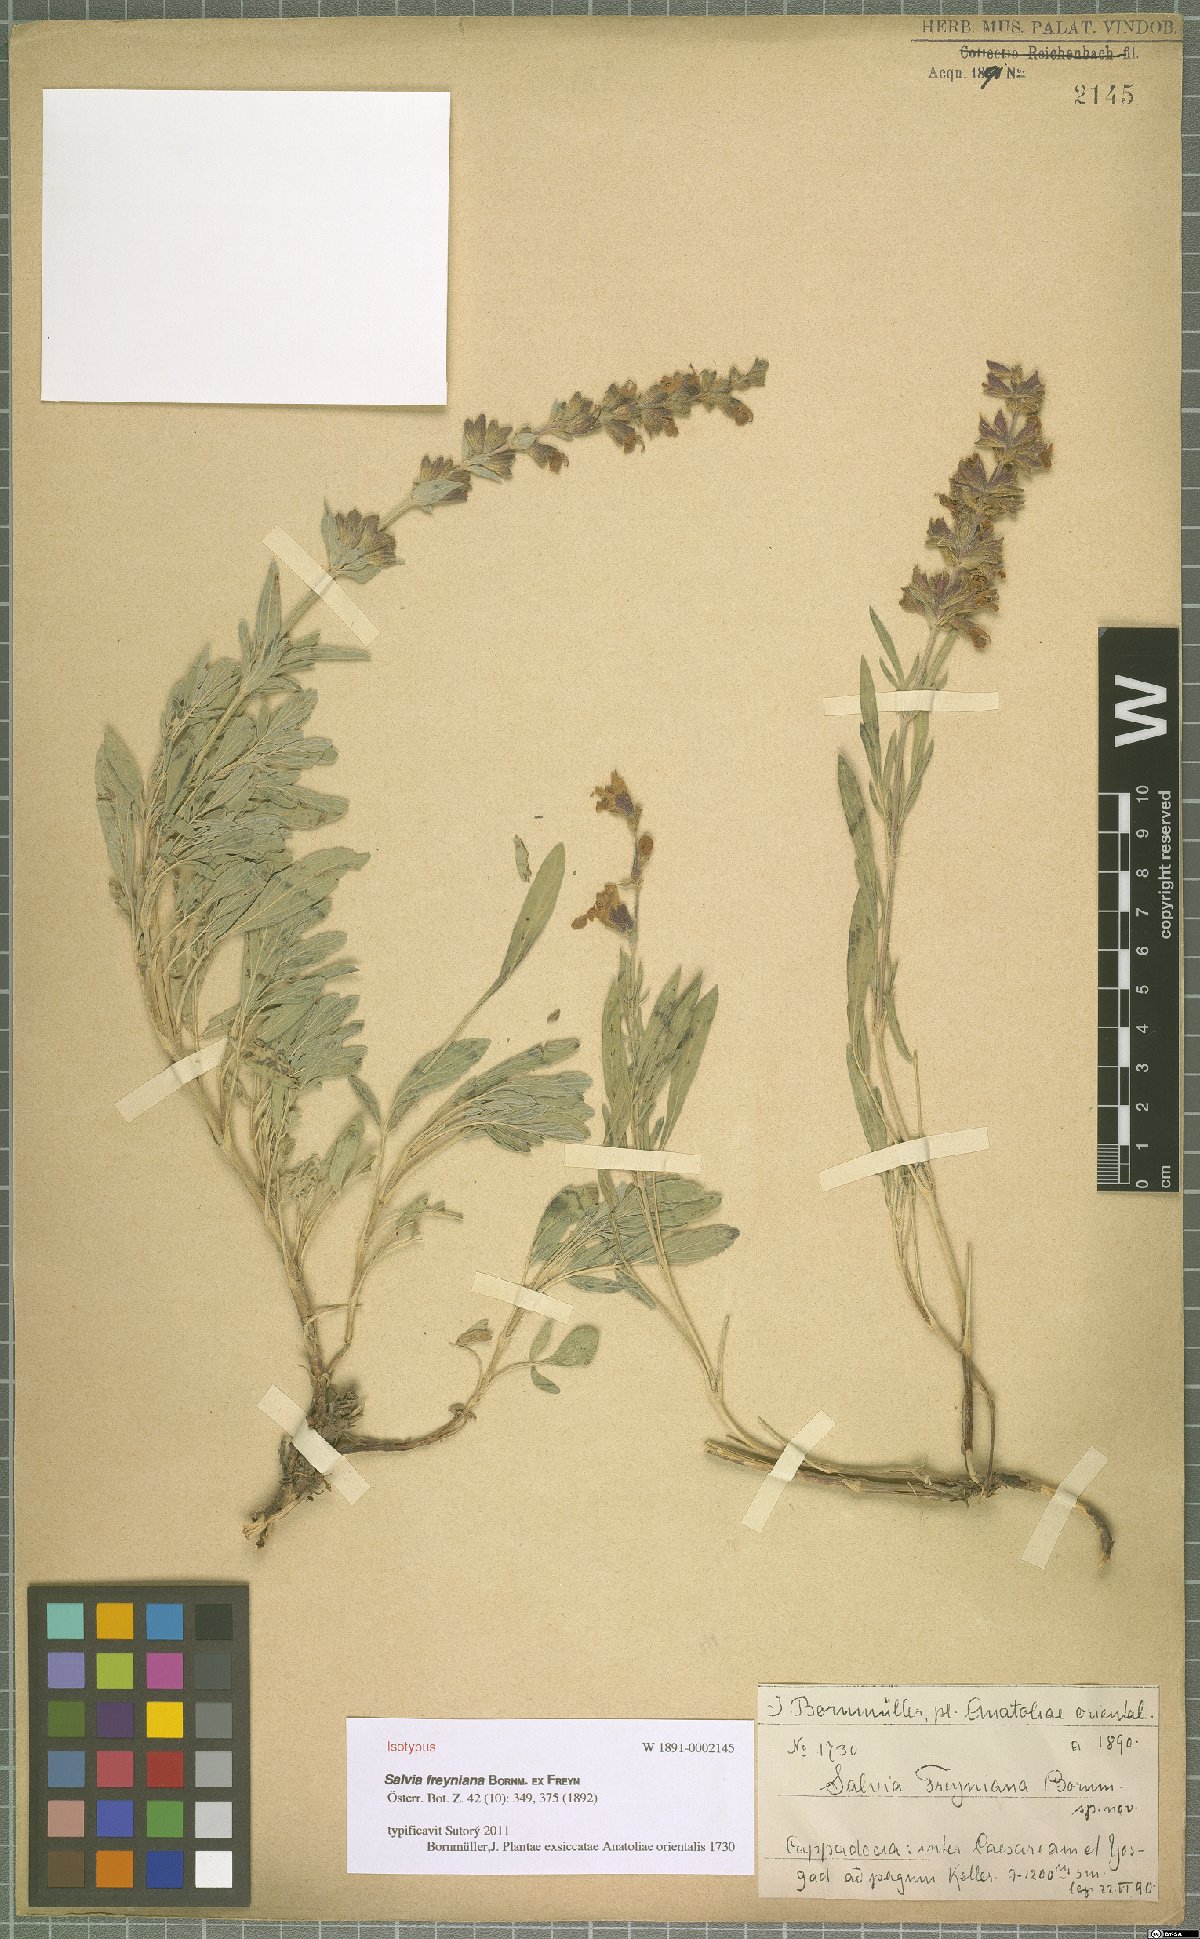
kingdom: Plantae
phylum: Tracheophyta
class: Magnoliopsida
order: Lamiales
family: Lamiaceae
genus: Salvia
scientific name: Salvia freyniana
